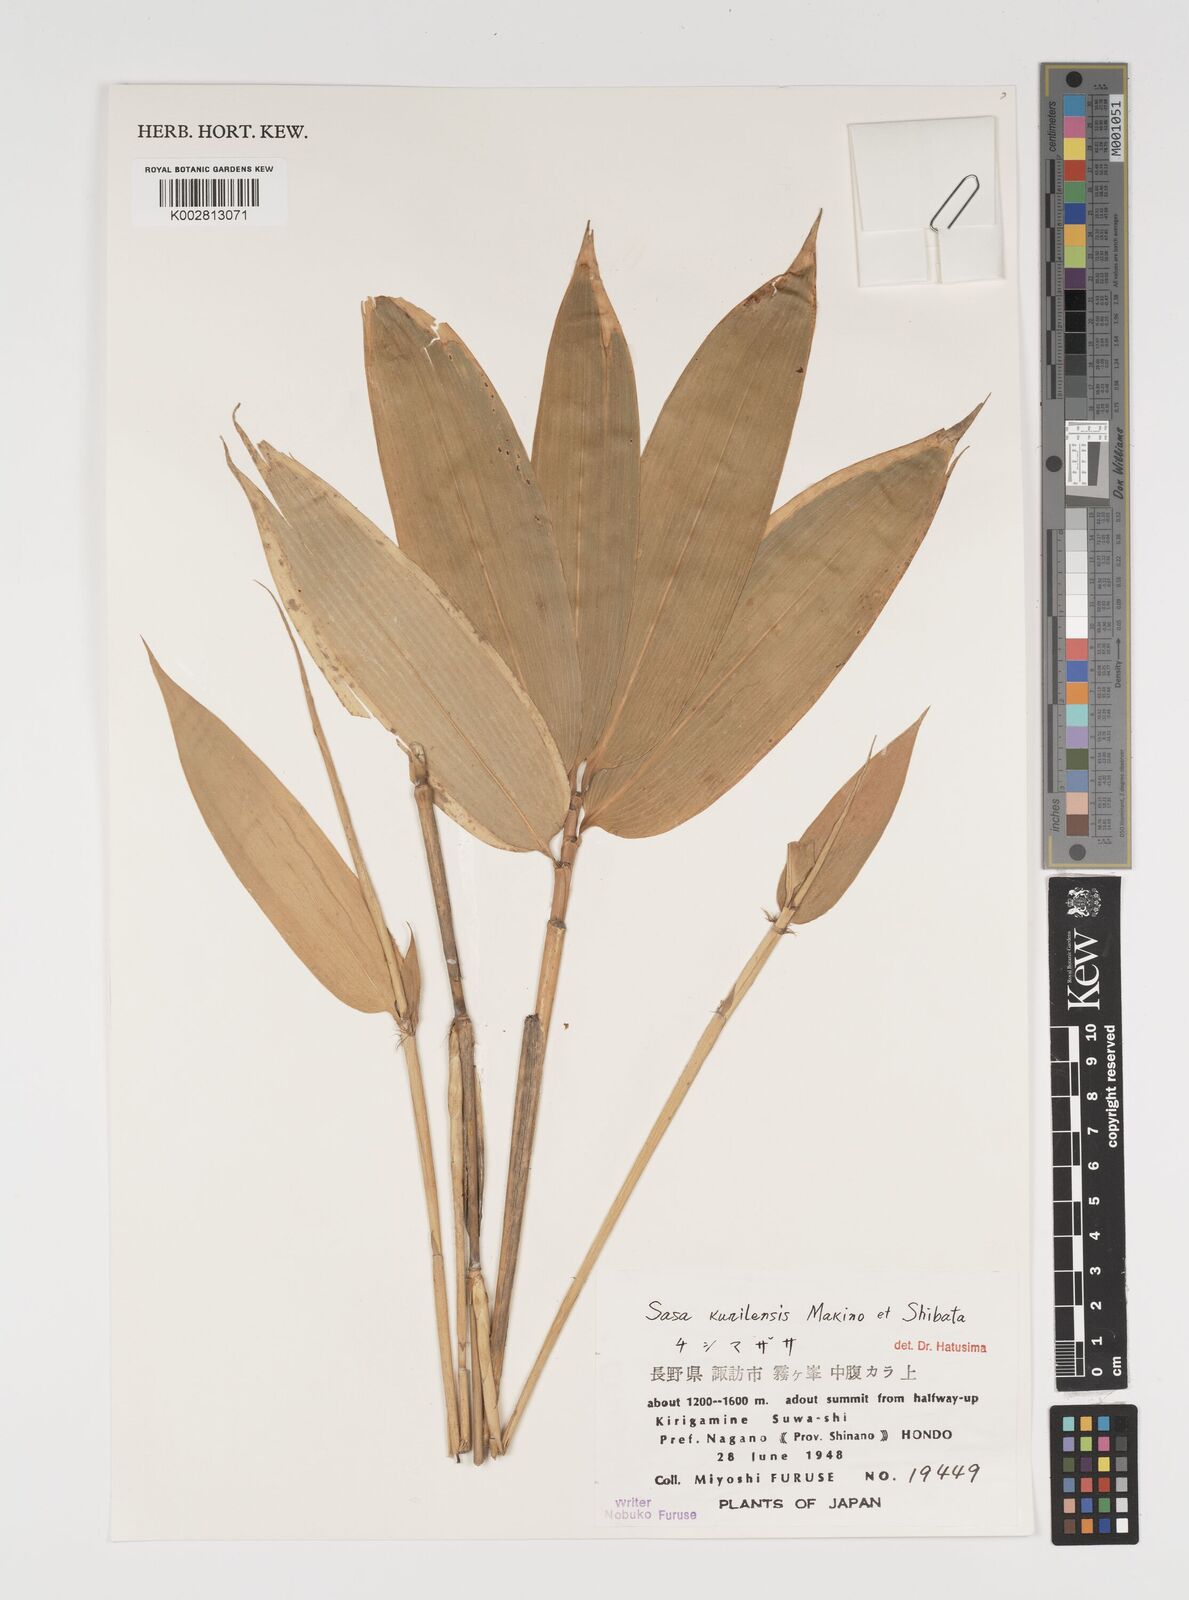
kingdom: Plantae
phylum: Tracheophyta
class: Liliopsida
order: Poales
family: Poaceae
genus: Sasa
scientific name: Sasa kurilensis
